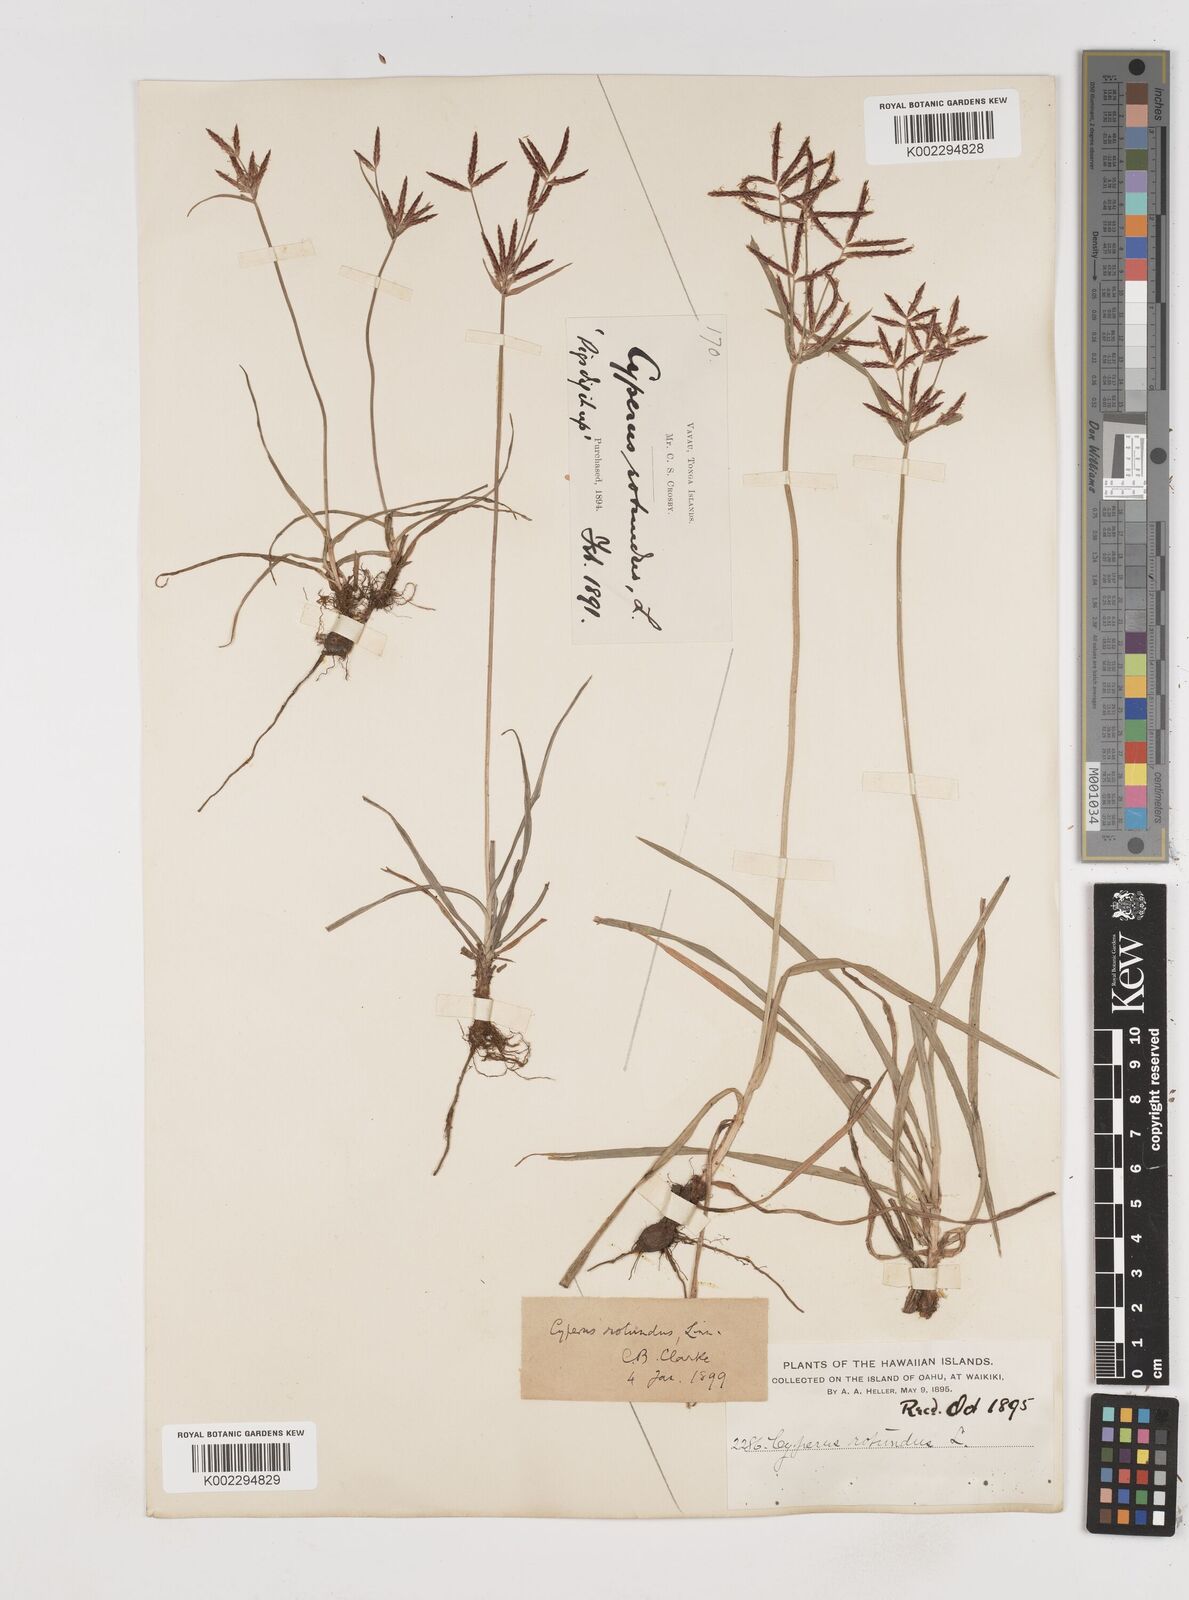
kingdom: Plantae
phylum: Tracheophyta
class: Liliopsida
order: Poales
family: Cyperaceae
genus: Cyperus
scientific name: Cyperus rotundus
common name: Nutgrass
